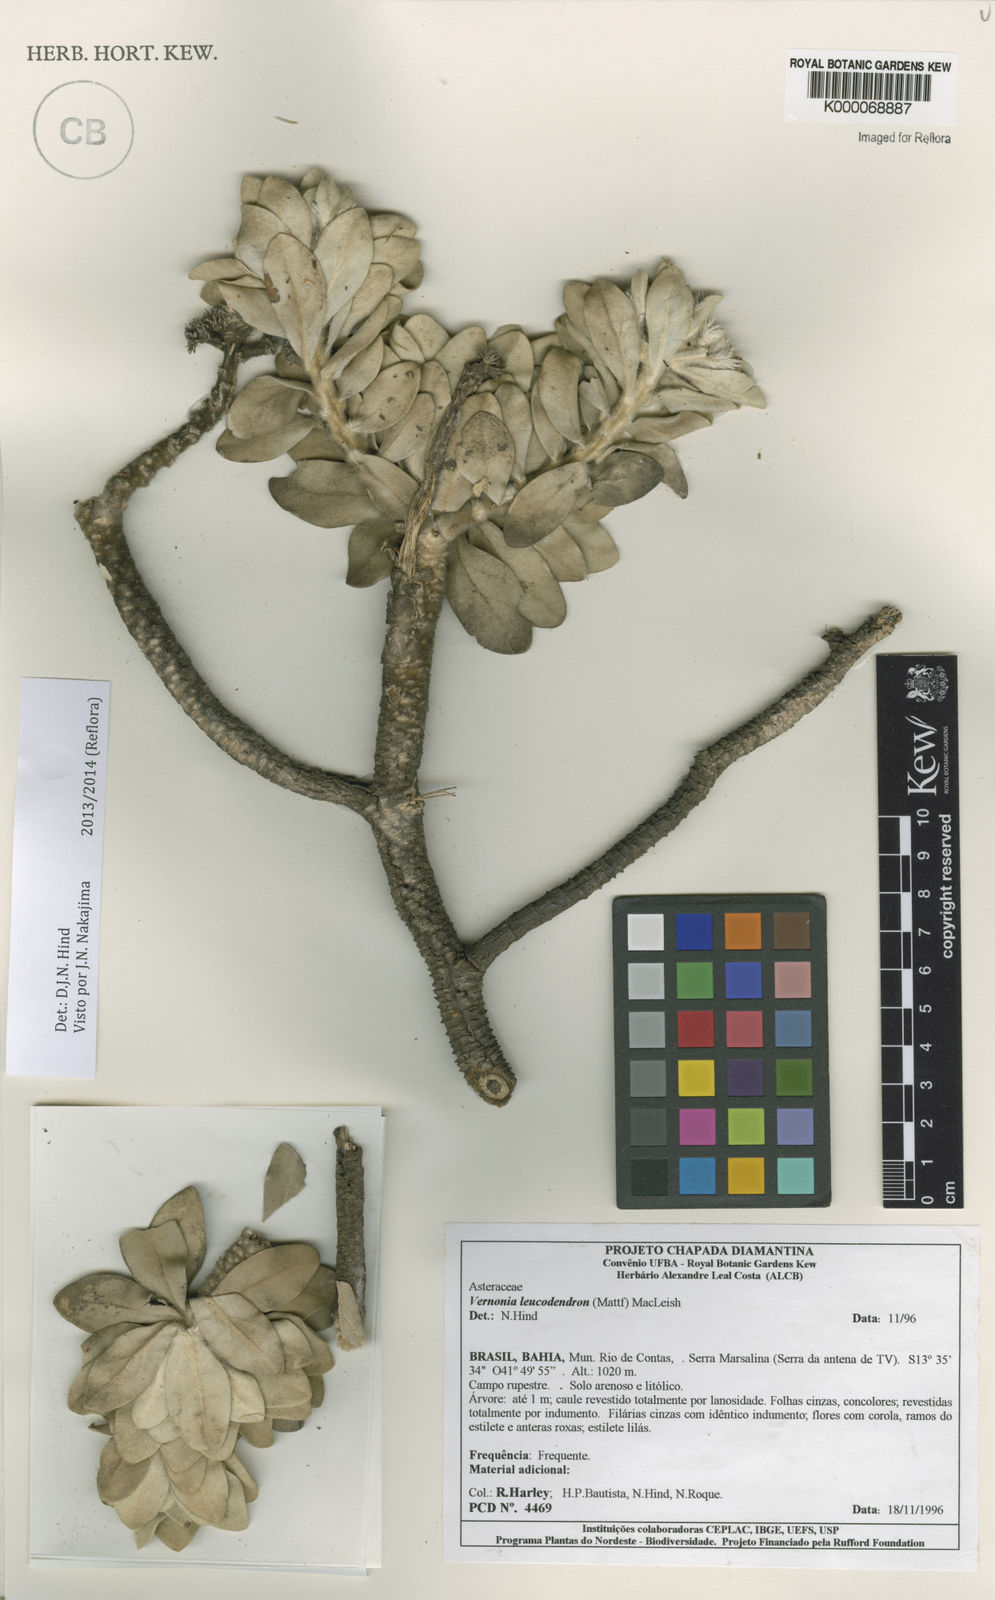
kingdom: Plantae
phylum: Tracheophyta
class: Magnoliopsida
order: Asterales
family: Asteraceae
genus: Lychnophorella
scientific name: Lychnophorella leucodendron
